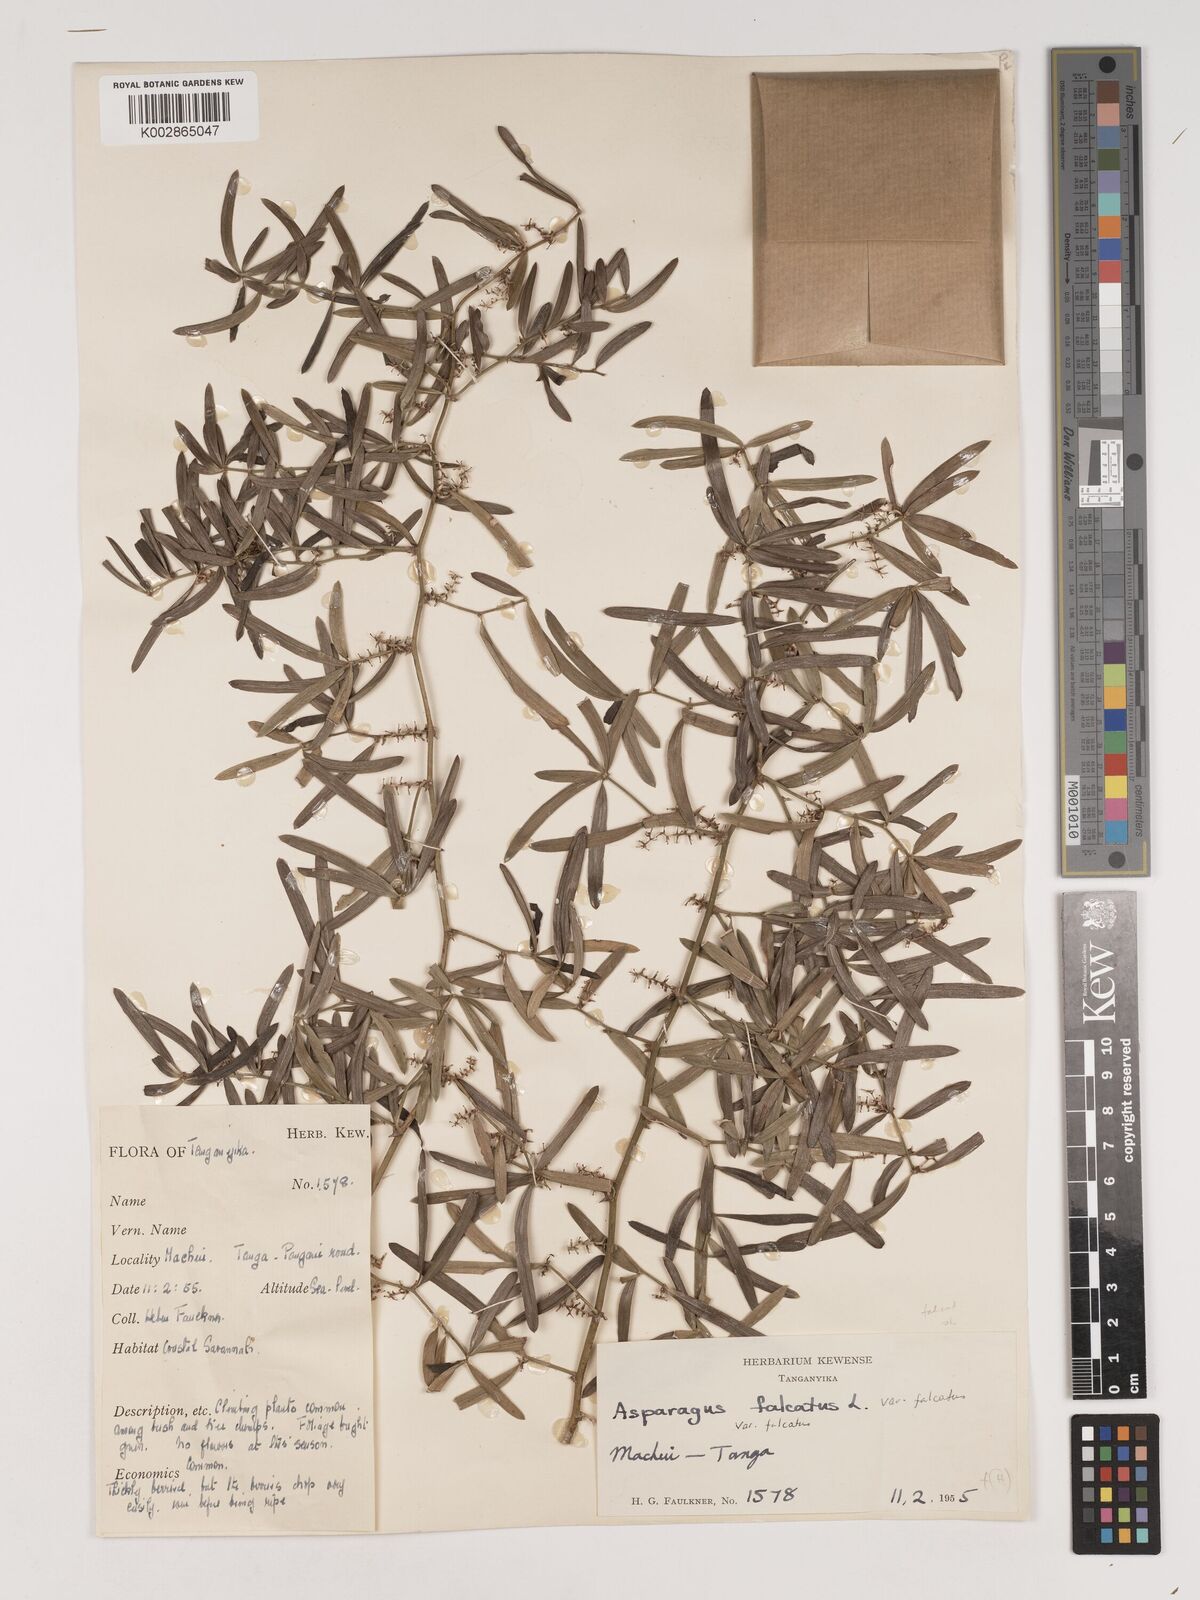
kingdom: Plantae
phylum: Tracheophyta
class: Liliopsida
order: Asparagales
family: Asparagaceae
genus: Asparagus
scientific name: Asparagus falcatus
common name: Asparagus
